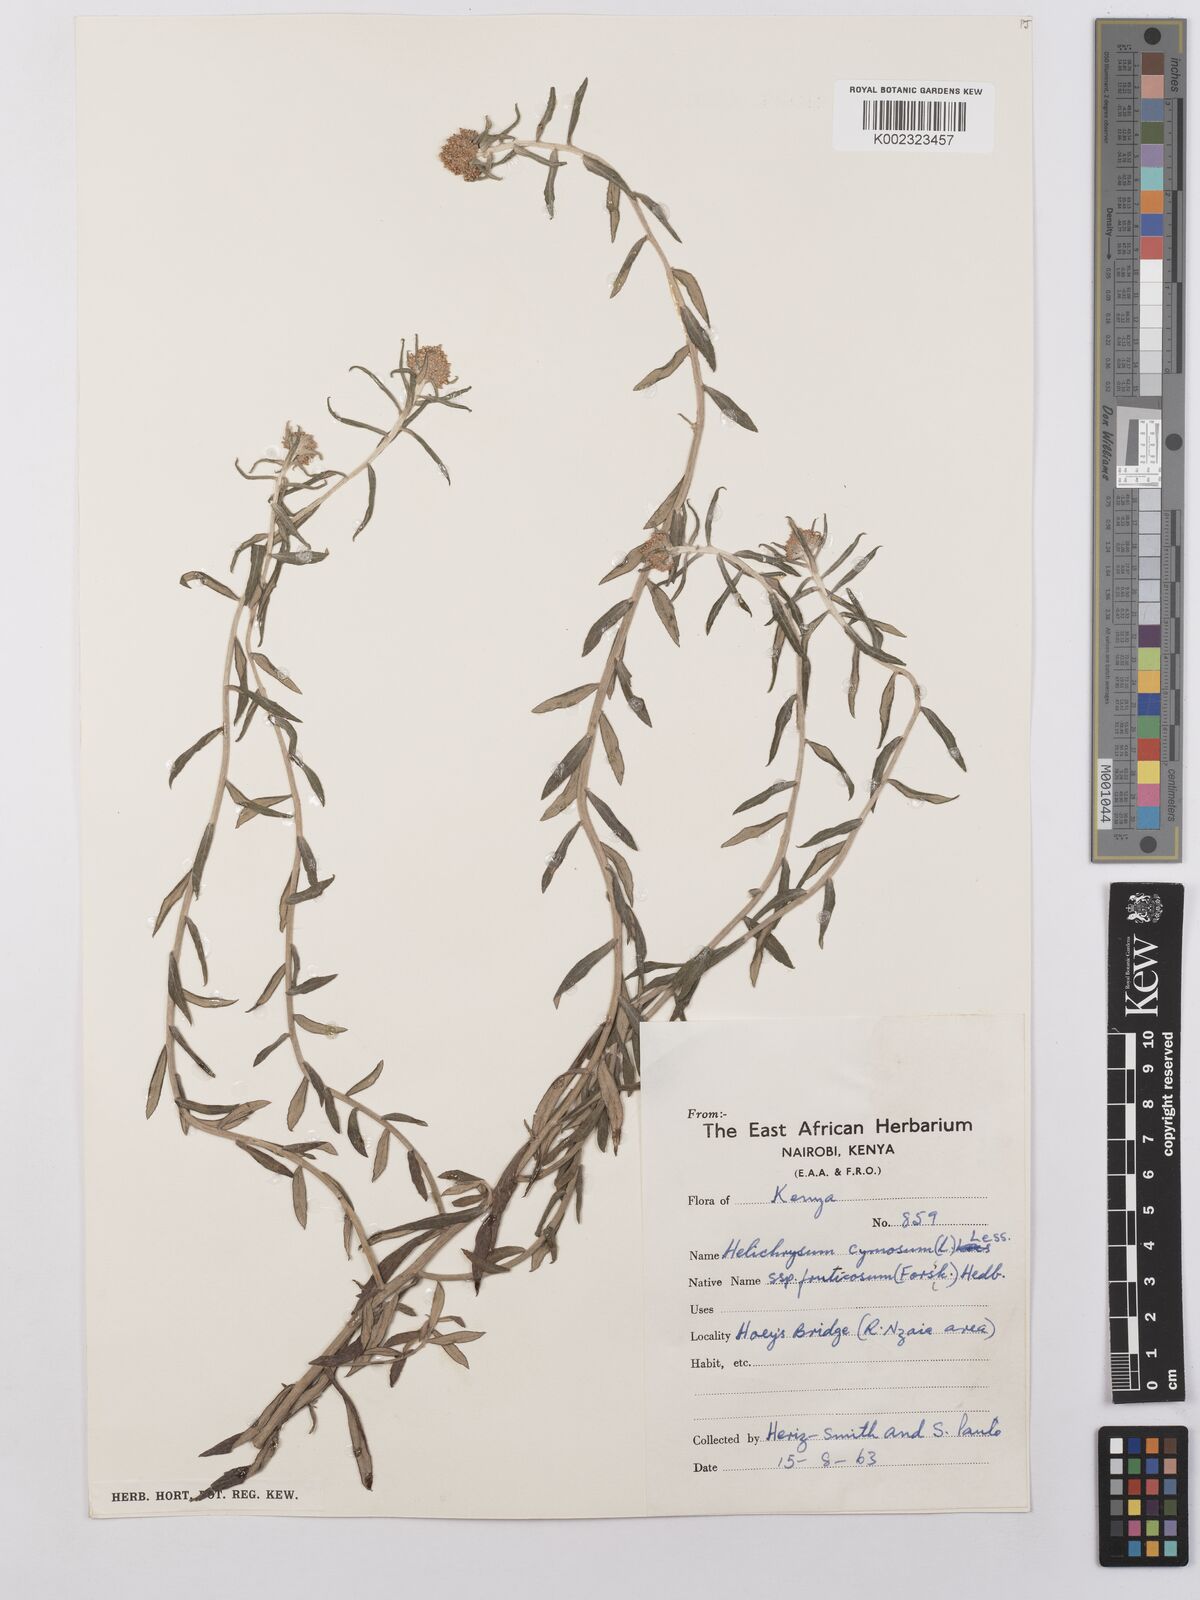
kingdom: Plantae
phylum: Tracheophyta
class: Magnoliopsida
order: Asterales
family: Asteraceae
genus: Helichrysum
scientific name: Helichrysum forskahlii
